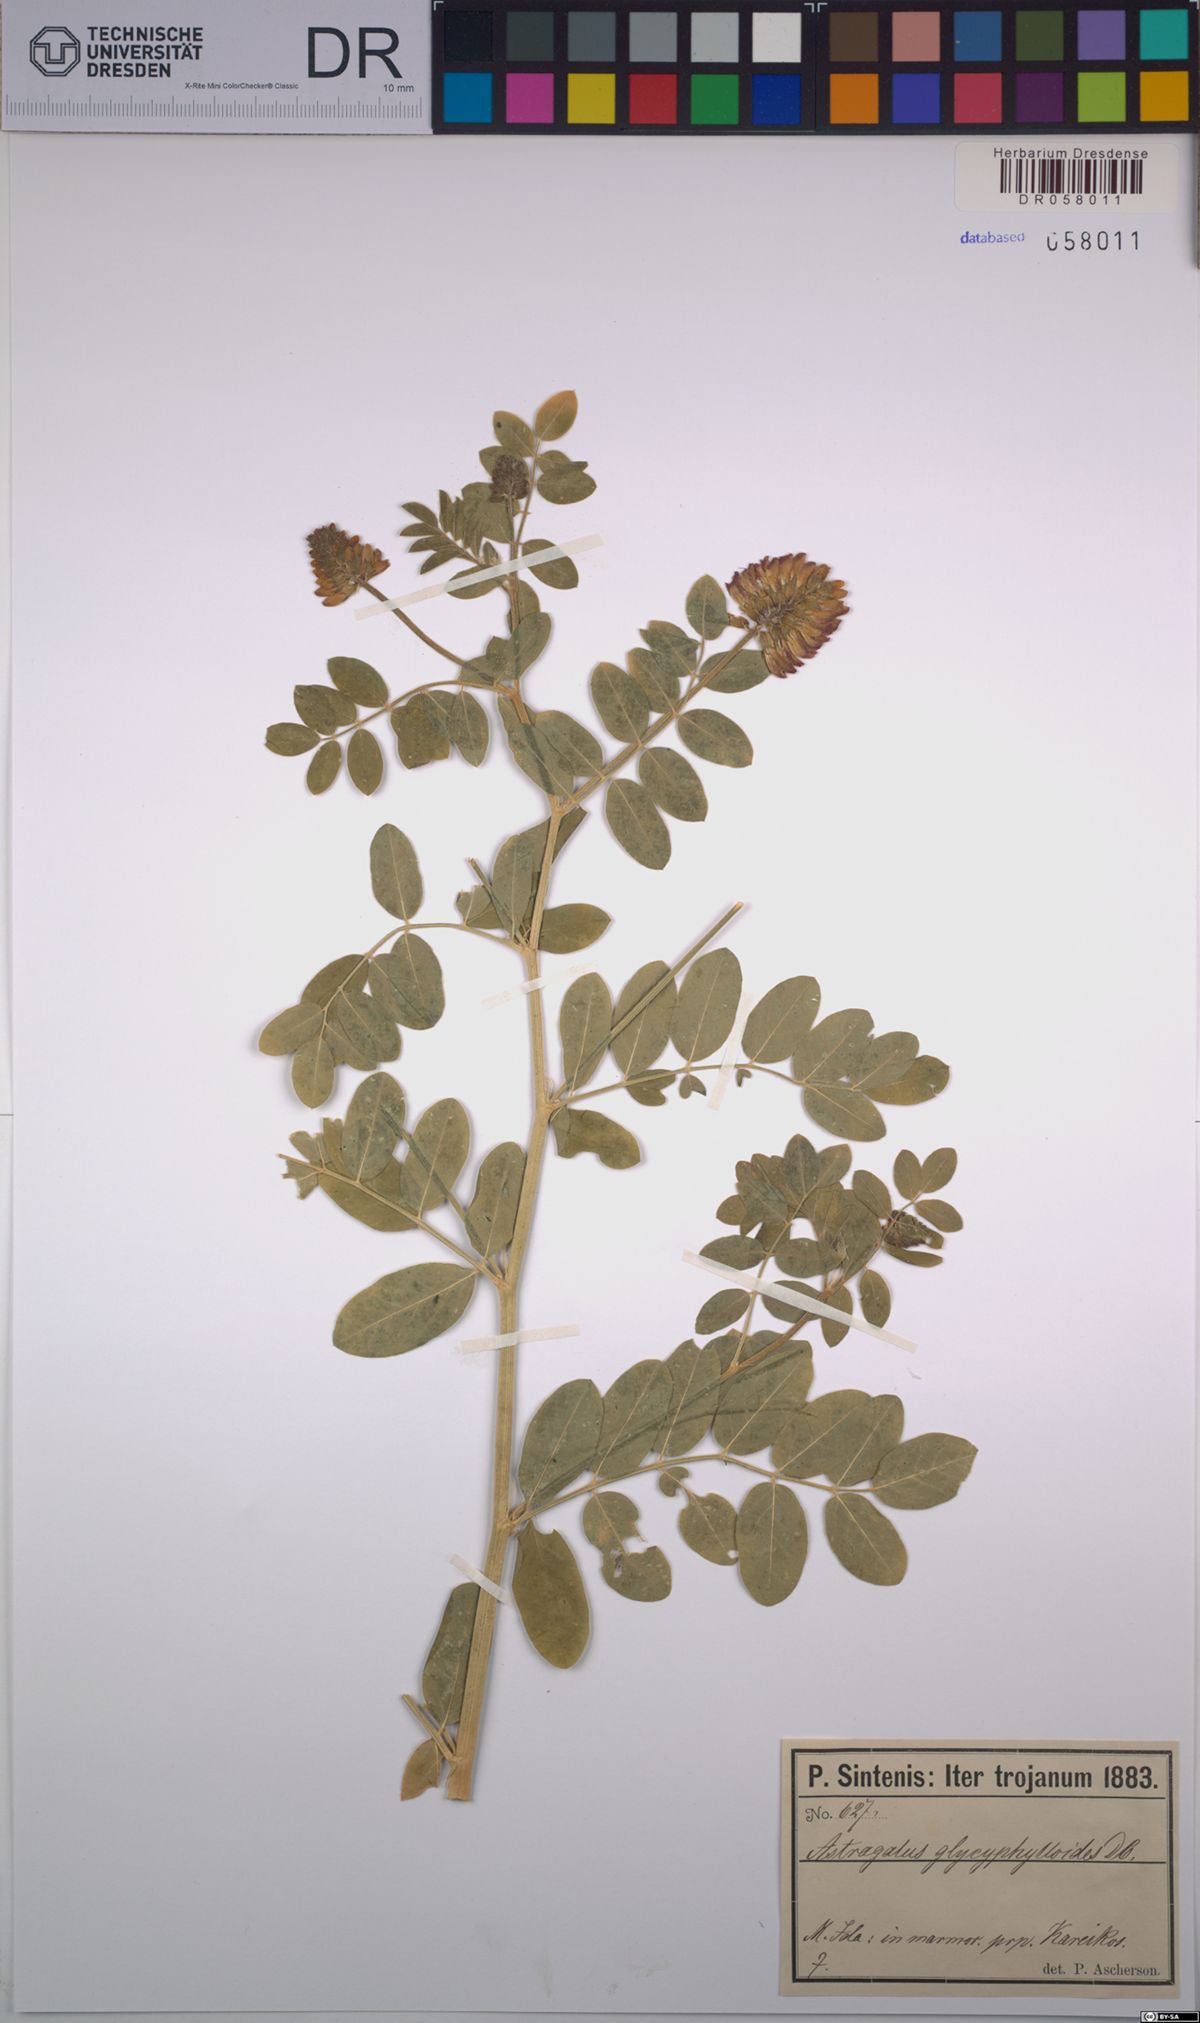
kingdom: Plantae
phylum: Tracheophyta
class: Magnoliopsida
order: Fabales
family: Fabaceae
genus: Astragalus
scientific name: Astragalus glycyphylloides
